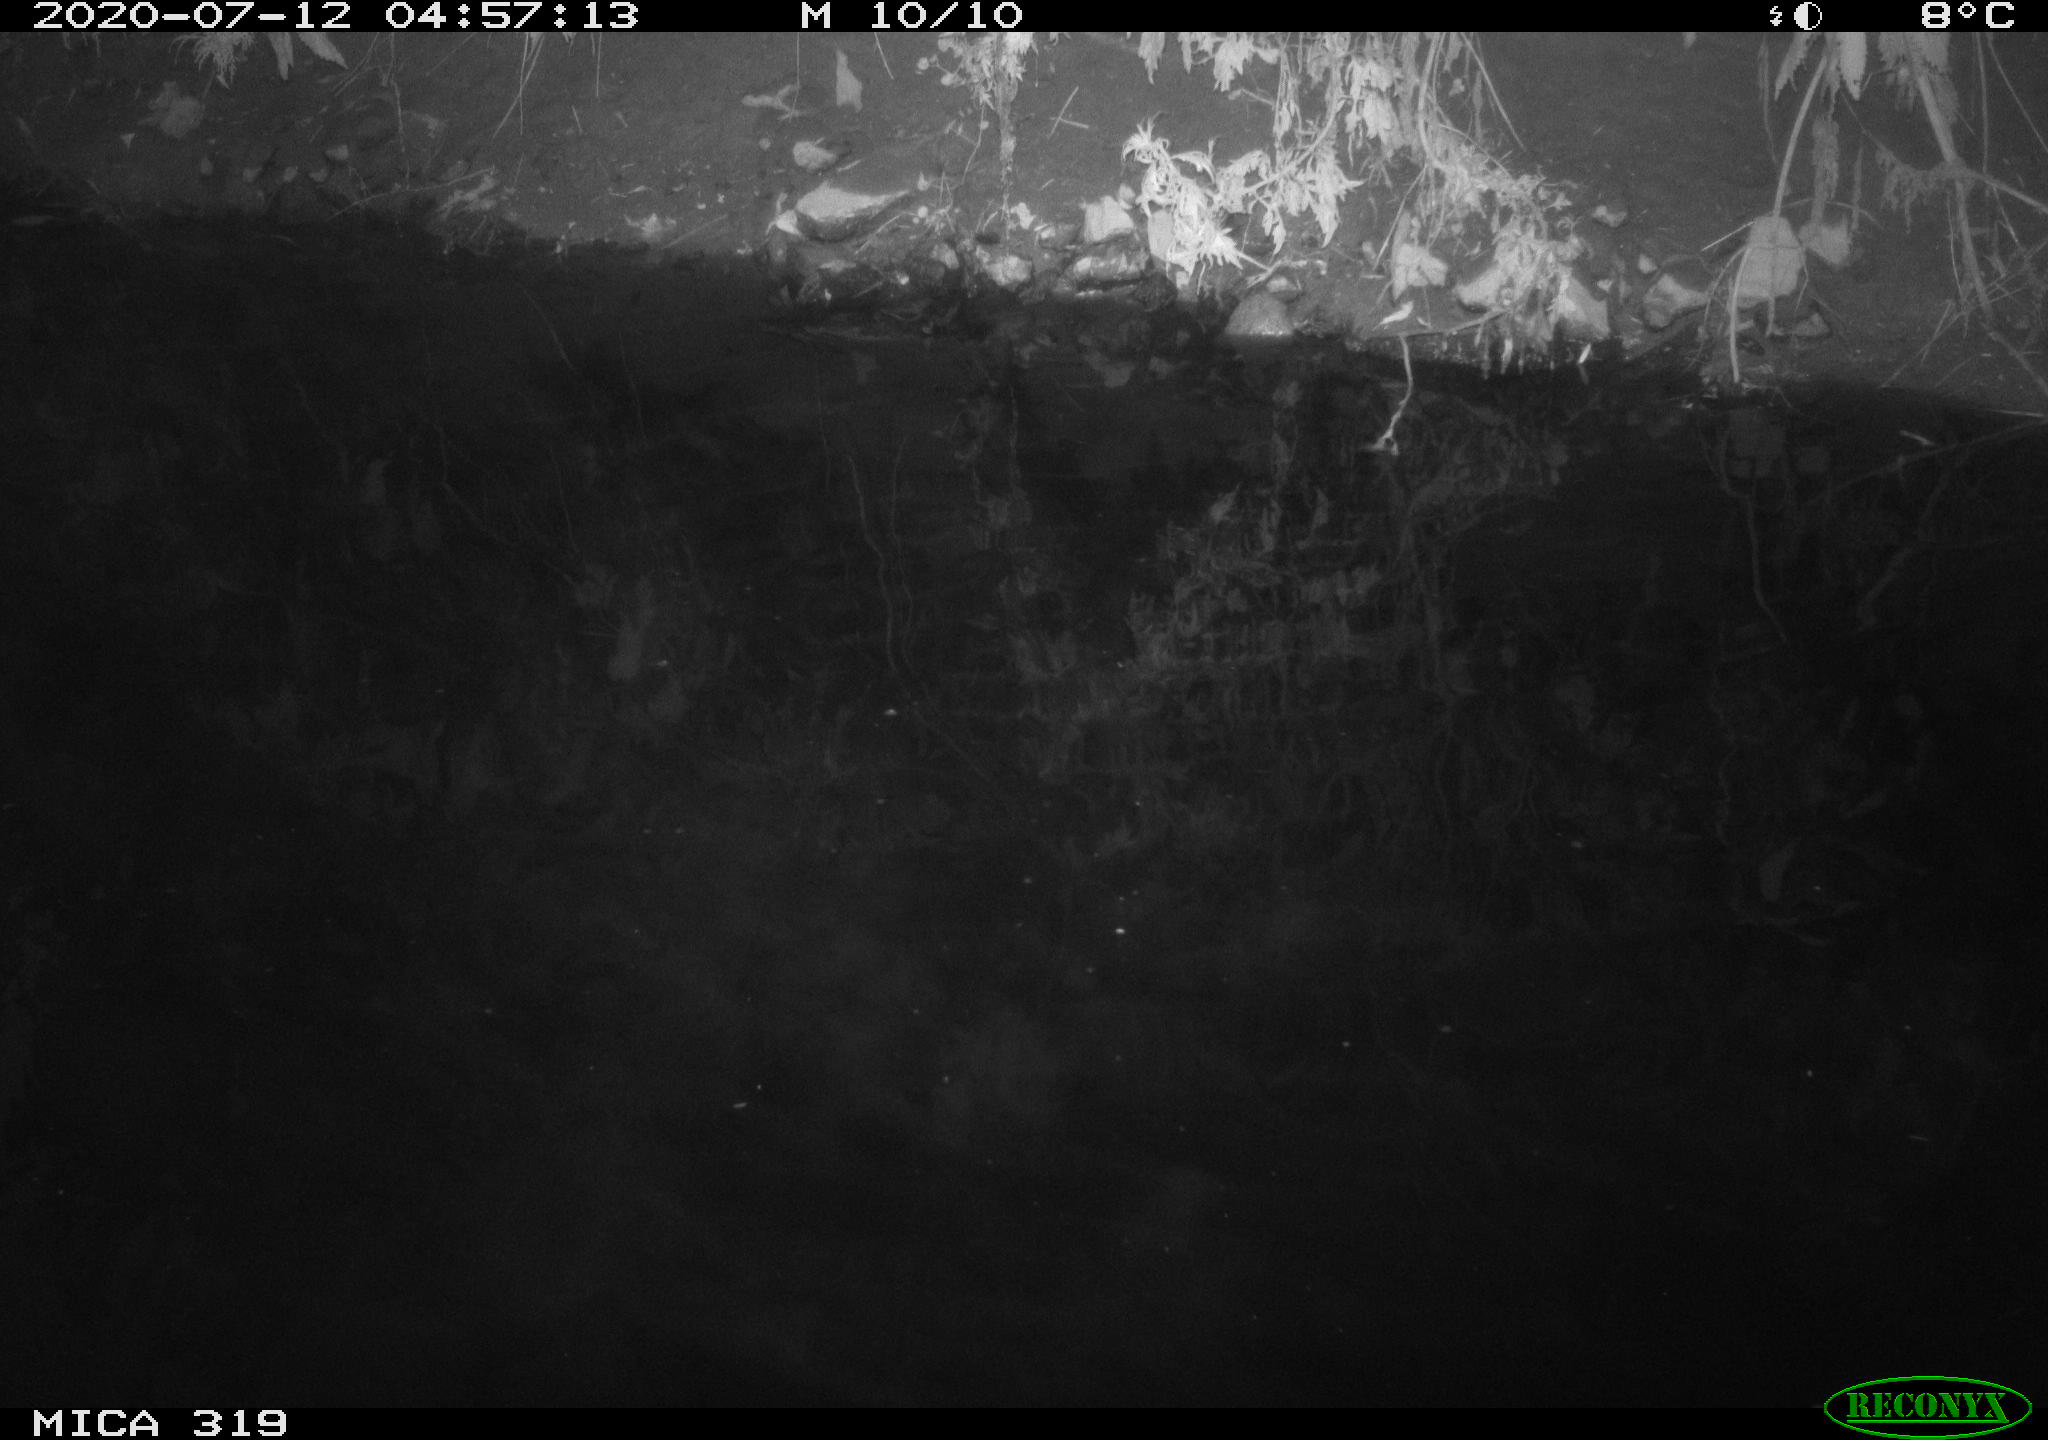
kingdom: Animalia
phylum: Chordata
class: Aves
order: Anseriformes
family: Anatidae
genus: Anas
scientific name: Anas platyrhynchos
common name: Mallard
